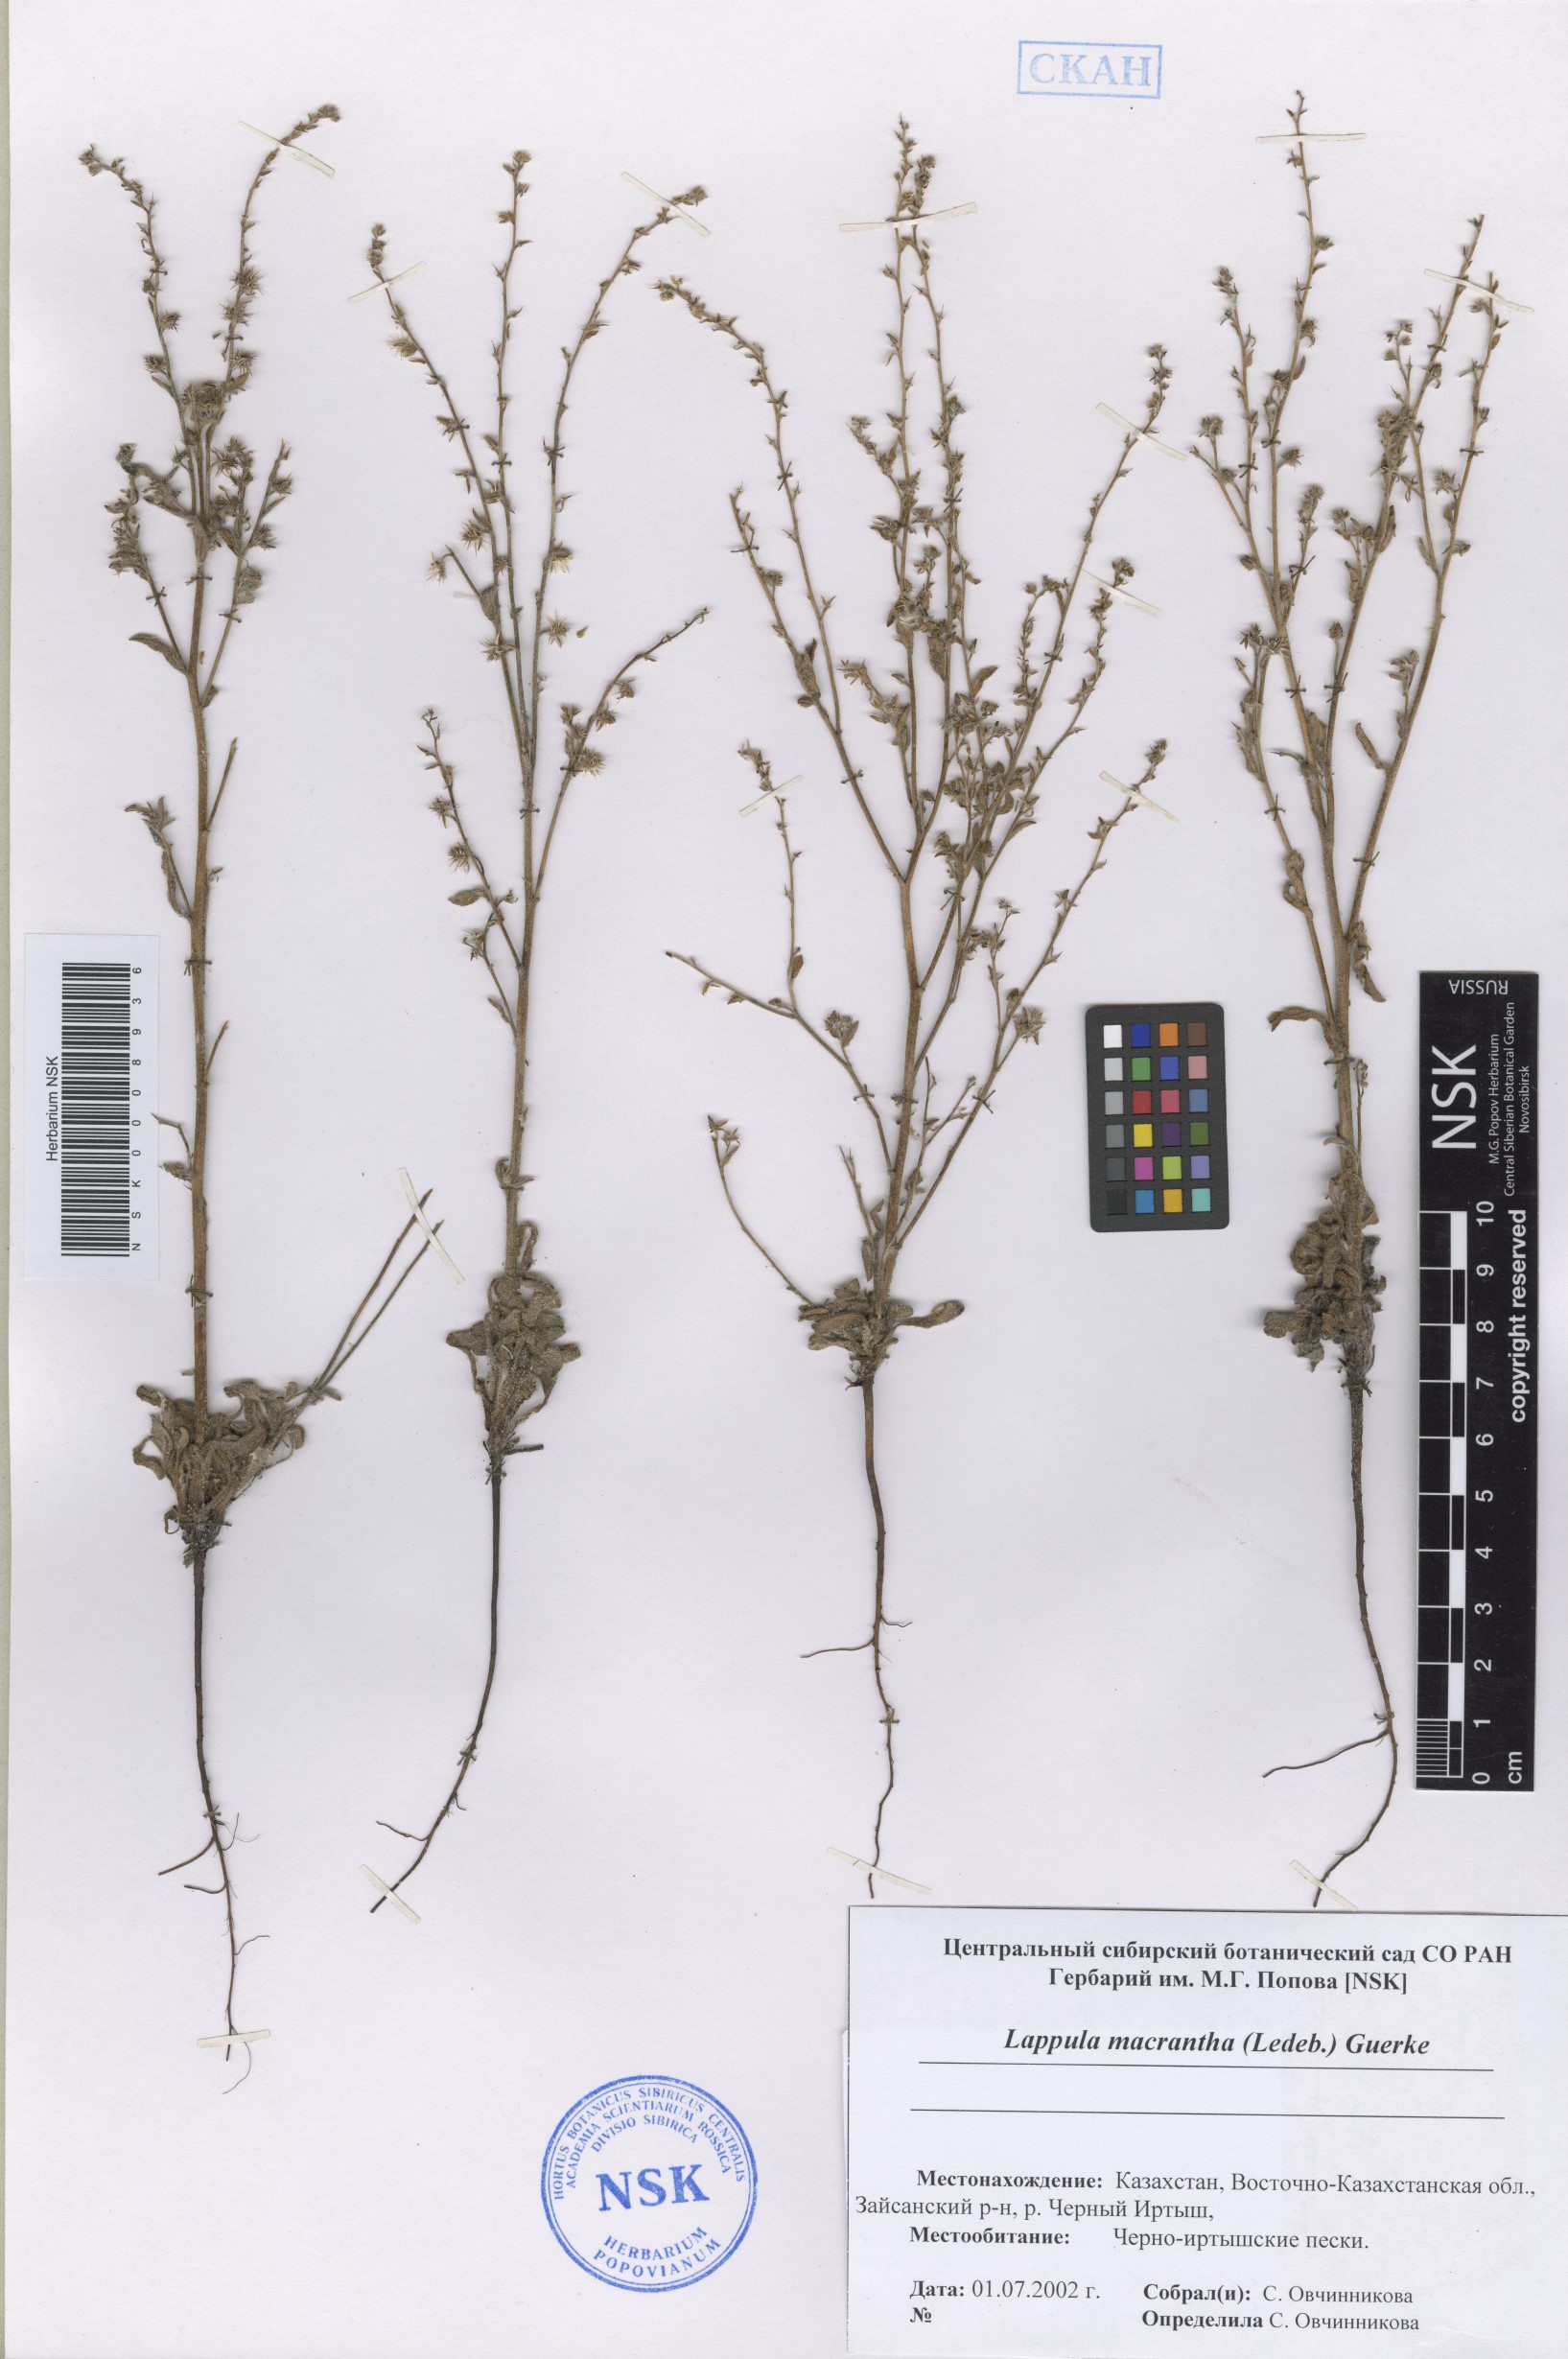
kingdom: Plantae
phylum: Tracheophyta
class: Magnoliopsida
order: Boraginales
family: Boraginaceae
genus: Lappula
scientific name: Lappula microcarpa
